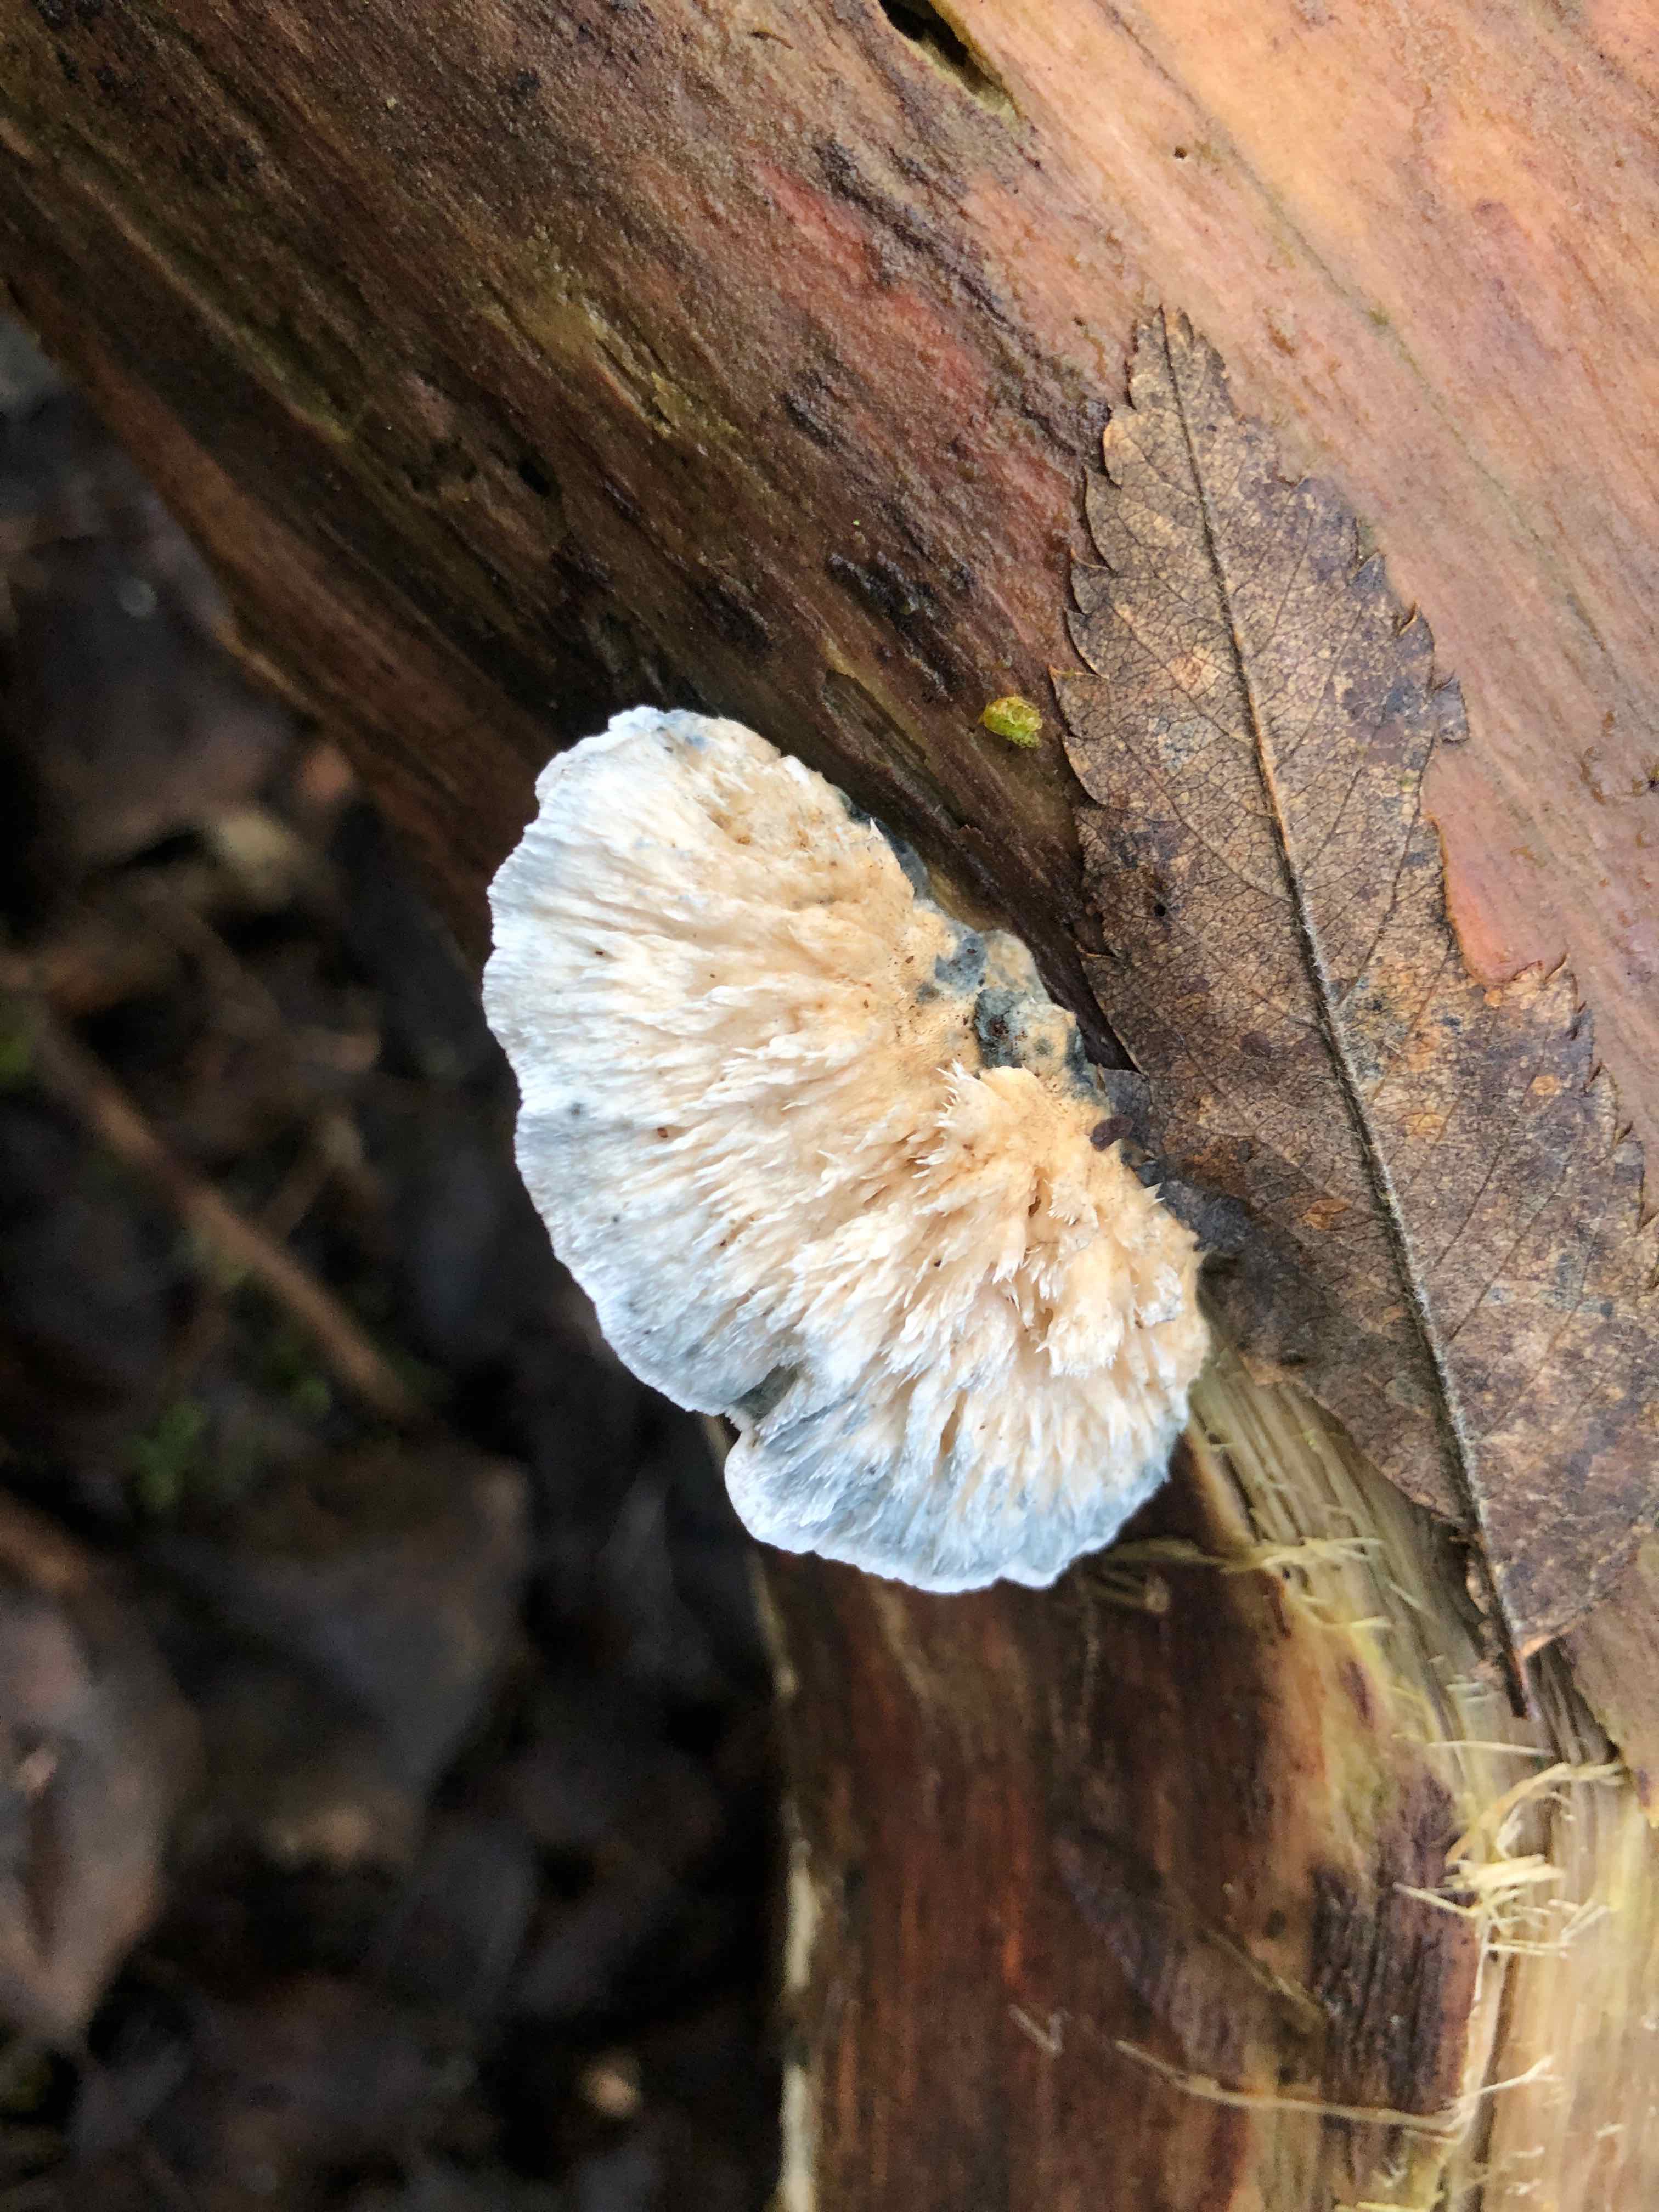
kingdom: Fungi
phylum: Basidiomycota
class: Agaricomycetes
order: Polyporales
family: Polyporaceae
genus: Cyanosporus
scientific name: Cyanosporus caesius
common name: blålig kødporesvamp
